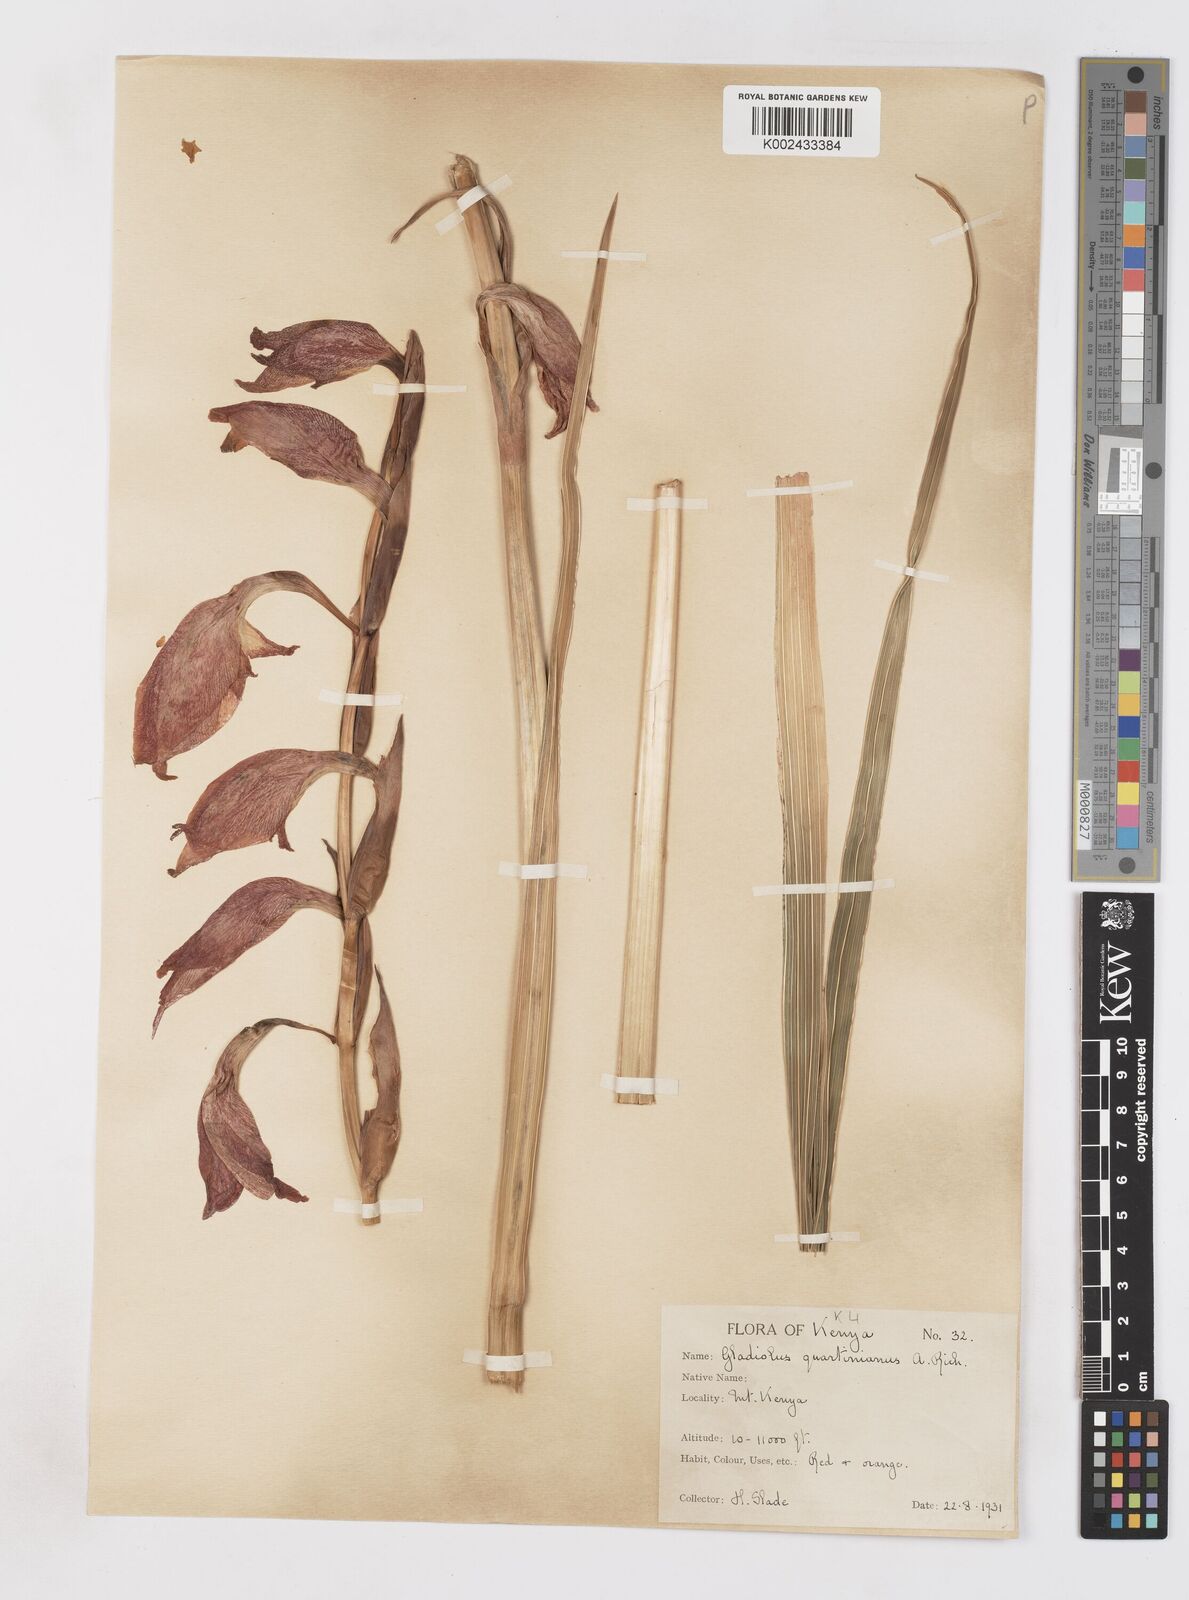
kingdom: Plantae
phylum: Tracheophyta
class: Liliopsida
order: Asparagales
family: Iridaceae
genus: Gladiolus
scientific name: Gladiolus dalenii
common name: Cornflag
